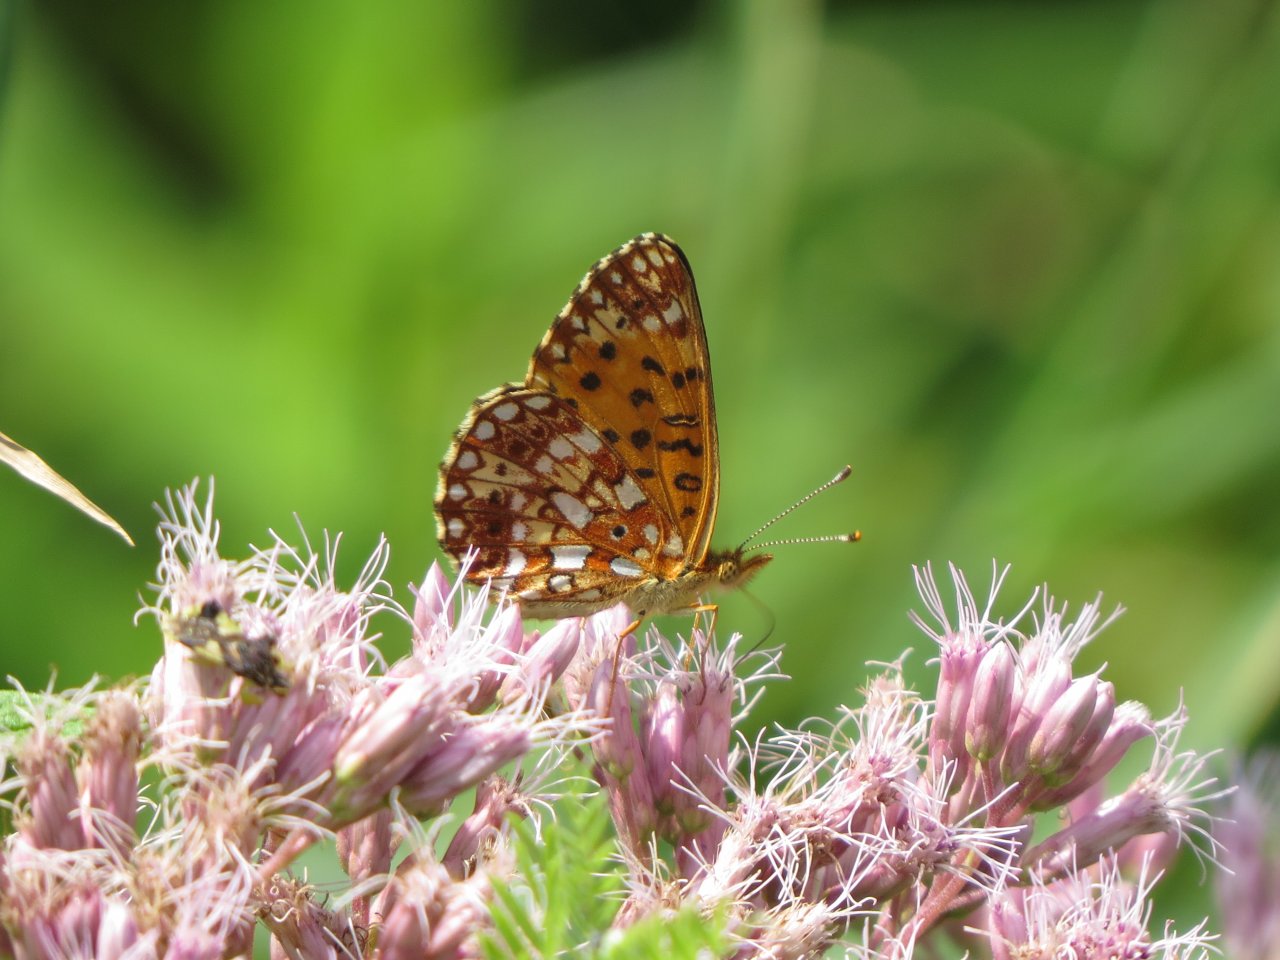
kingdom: Animalia
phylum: Arthropoda
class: Insecta
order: Lepidoptera
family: Nymphalidae
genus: Boloria
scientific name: Boloria selene
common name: Silver-bordered Fritillary
